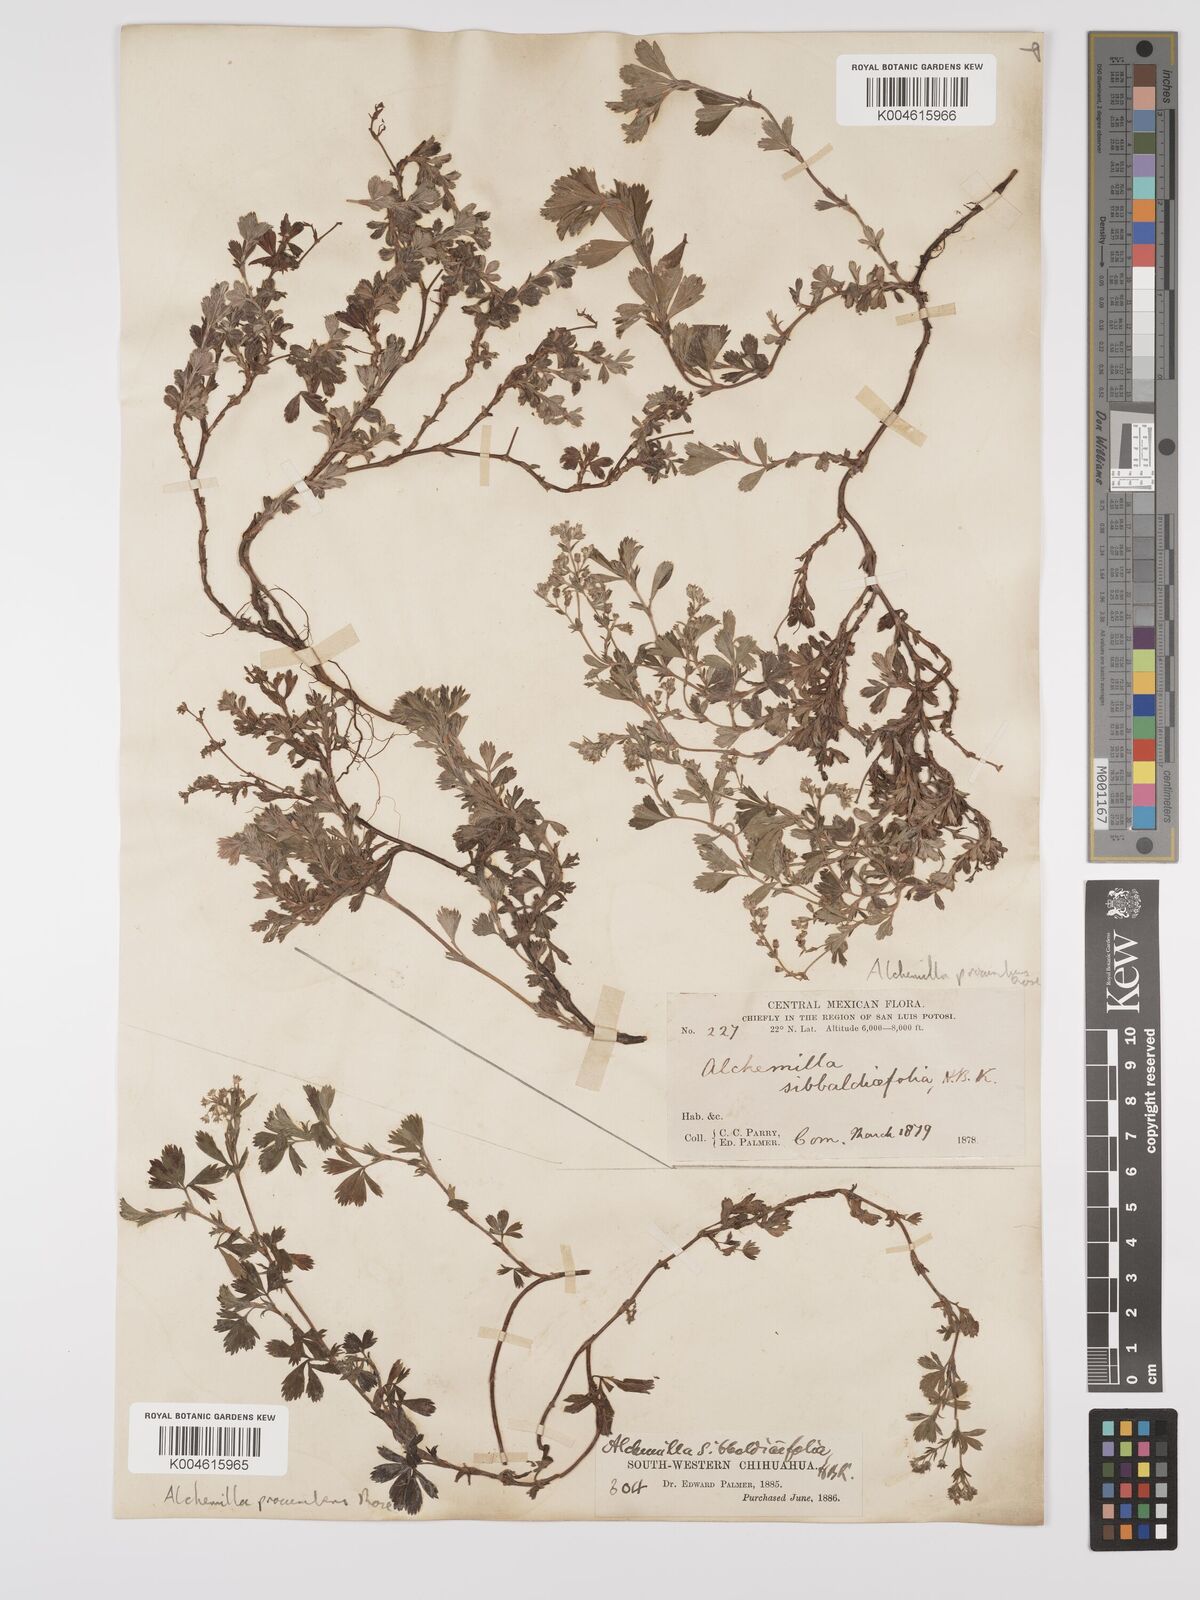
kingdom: Plantae
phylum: Tracheophyta
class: Magnoliopsida
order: Rosales
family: Rosaceae
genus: Lachemilla
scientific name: Lachemilla procumbens
